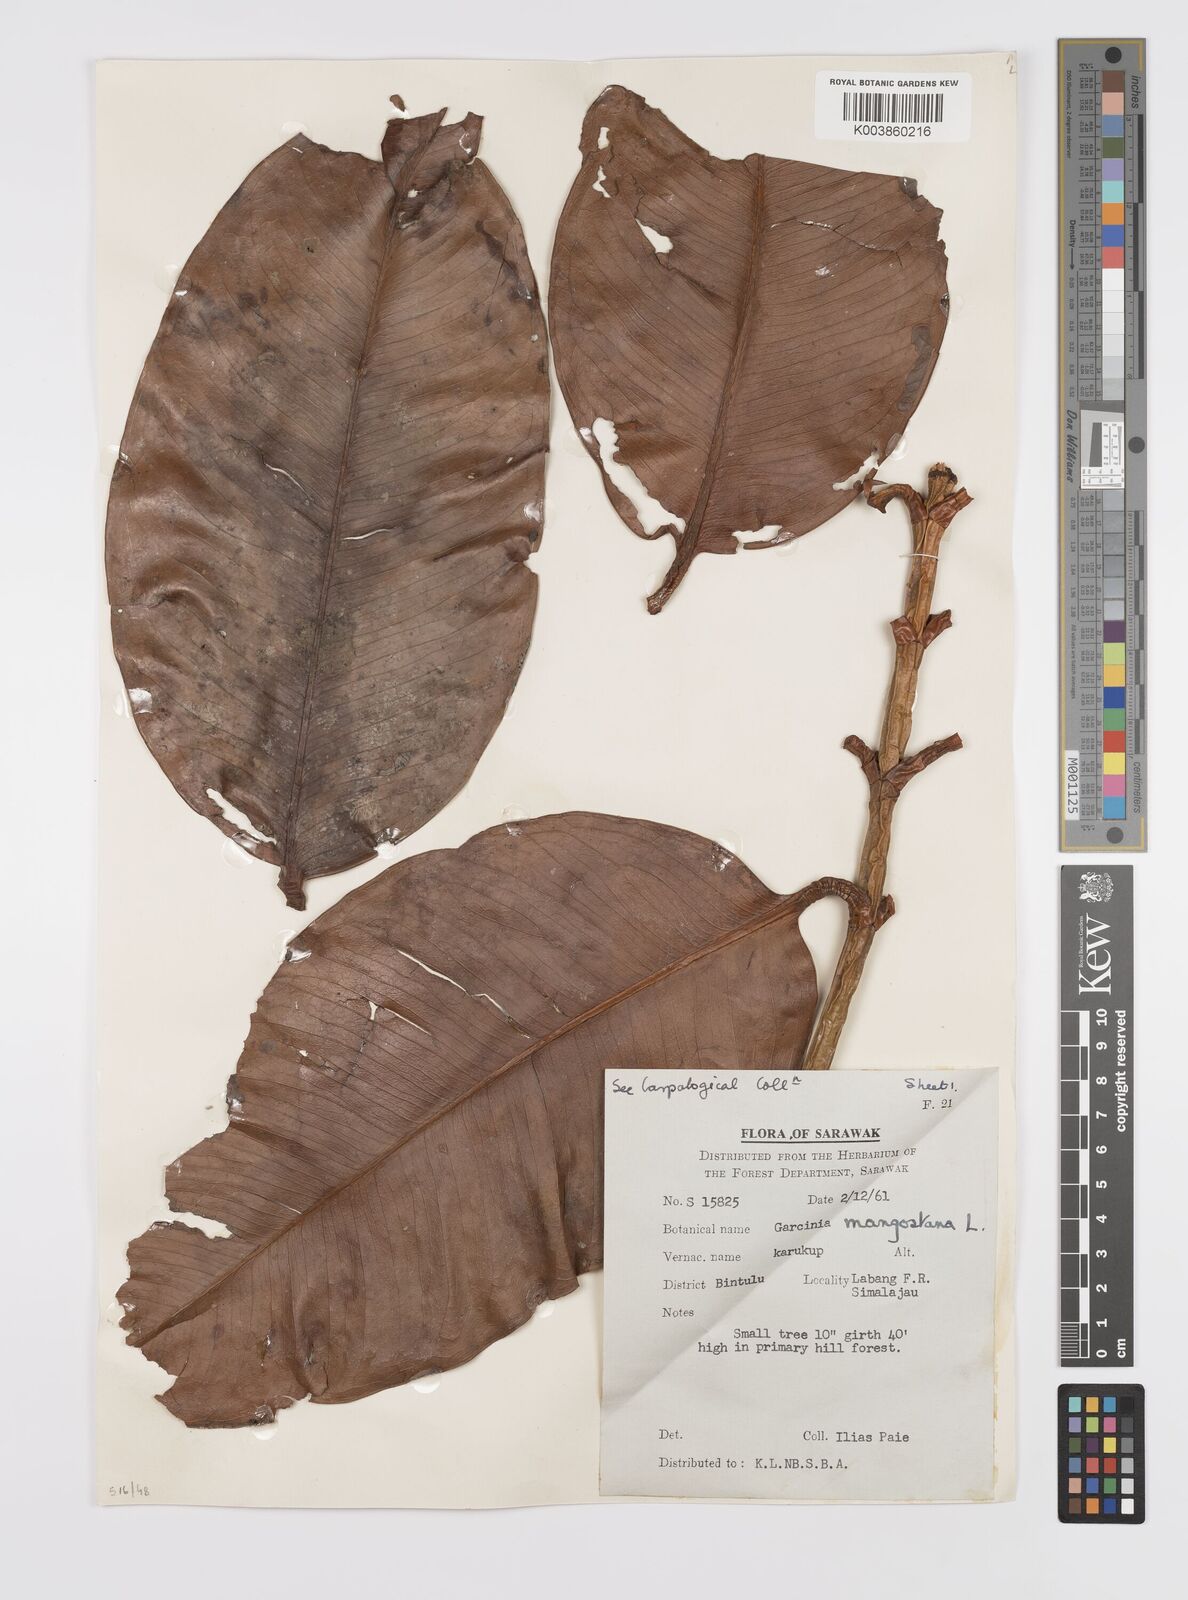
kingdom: Plantae
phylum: Tracheophyta
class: Magnoliopsida
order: Malpighiales
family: Clusiaceae
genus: Garcinia
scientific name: Garcinia mangostana
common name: Mangosteen
